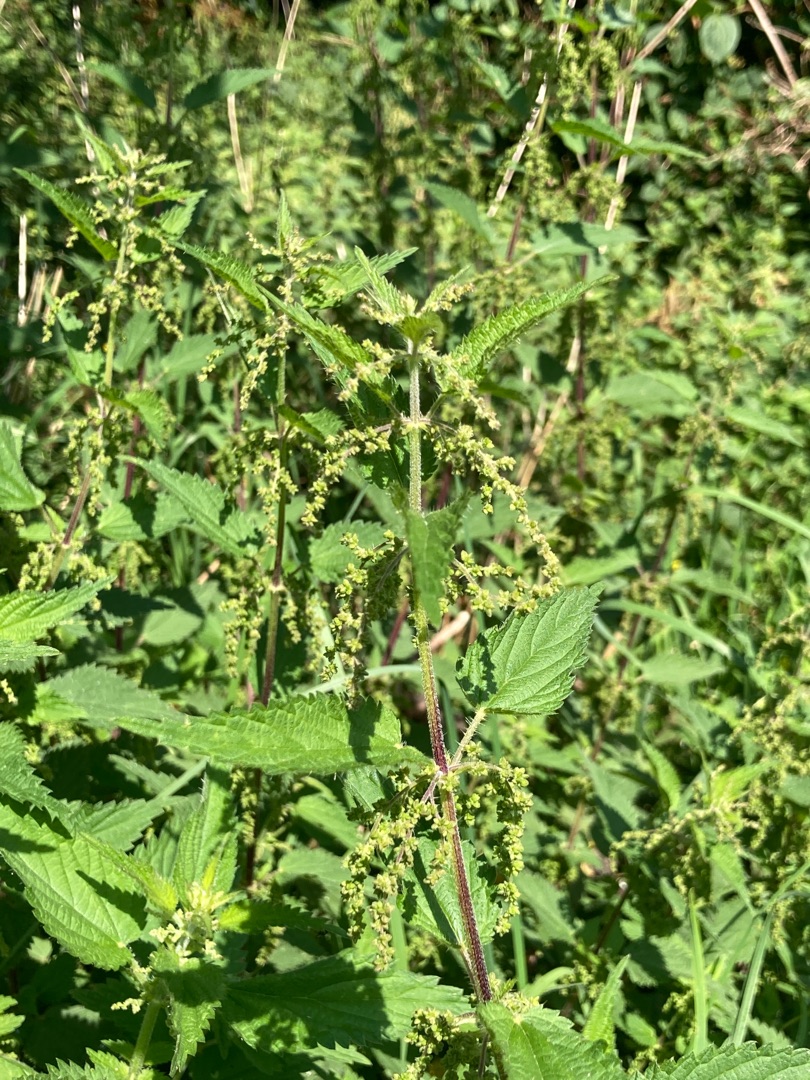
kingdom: Plantae
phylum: Tracheophyta
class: Magnoliopsida
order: Rosales
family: Urticaceae
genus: Urtica
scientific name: Urtica dioica
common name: Stor nælde
